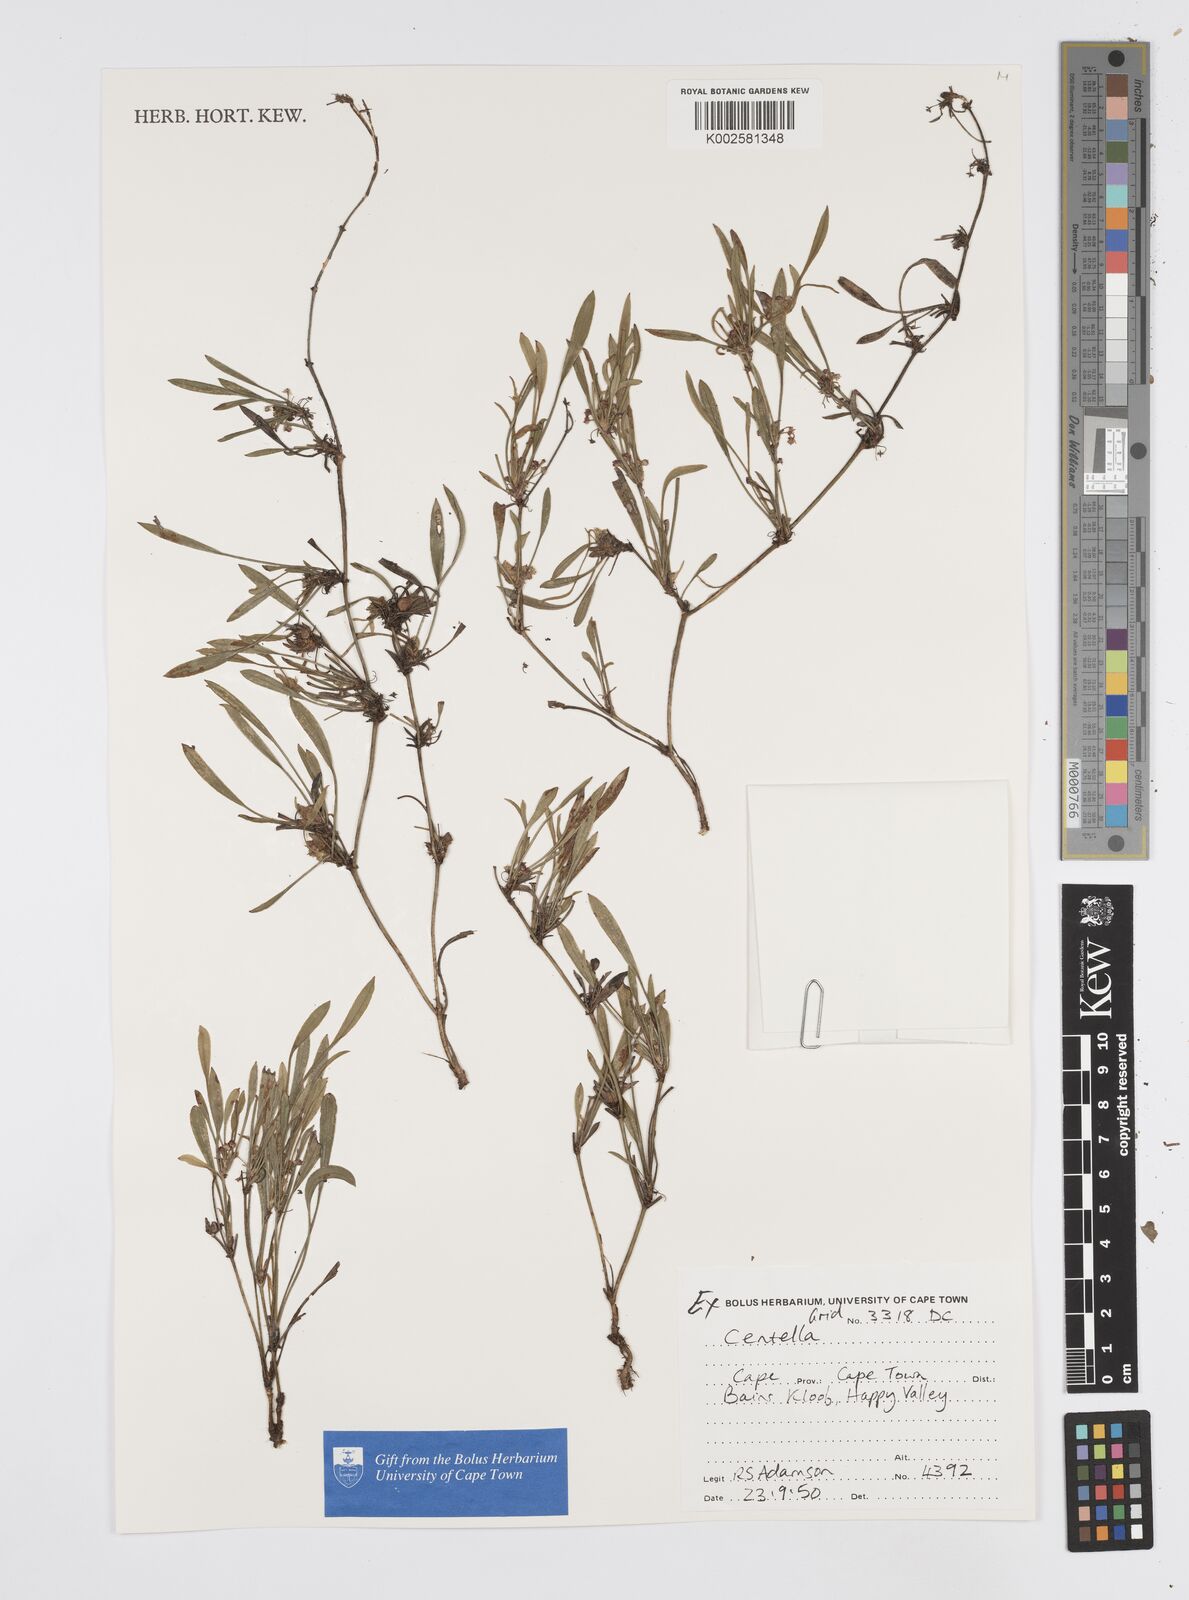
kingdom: Plantae
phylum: Tracheophyta
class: Magnoliopsida
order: Apiales
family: Apiaceae
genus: Centella
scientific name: Centella
